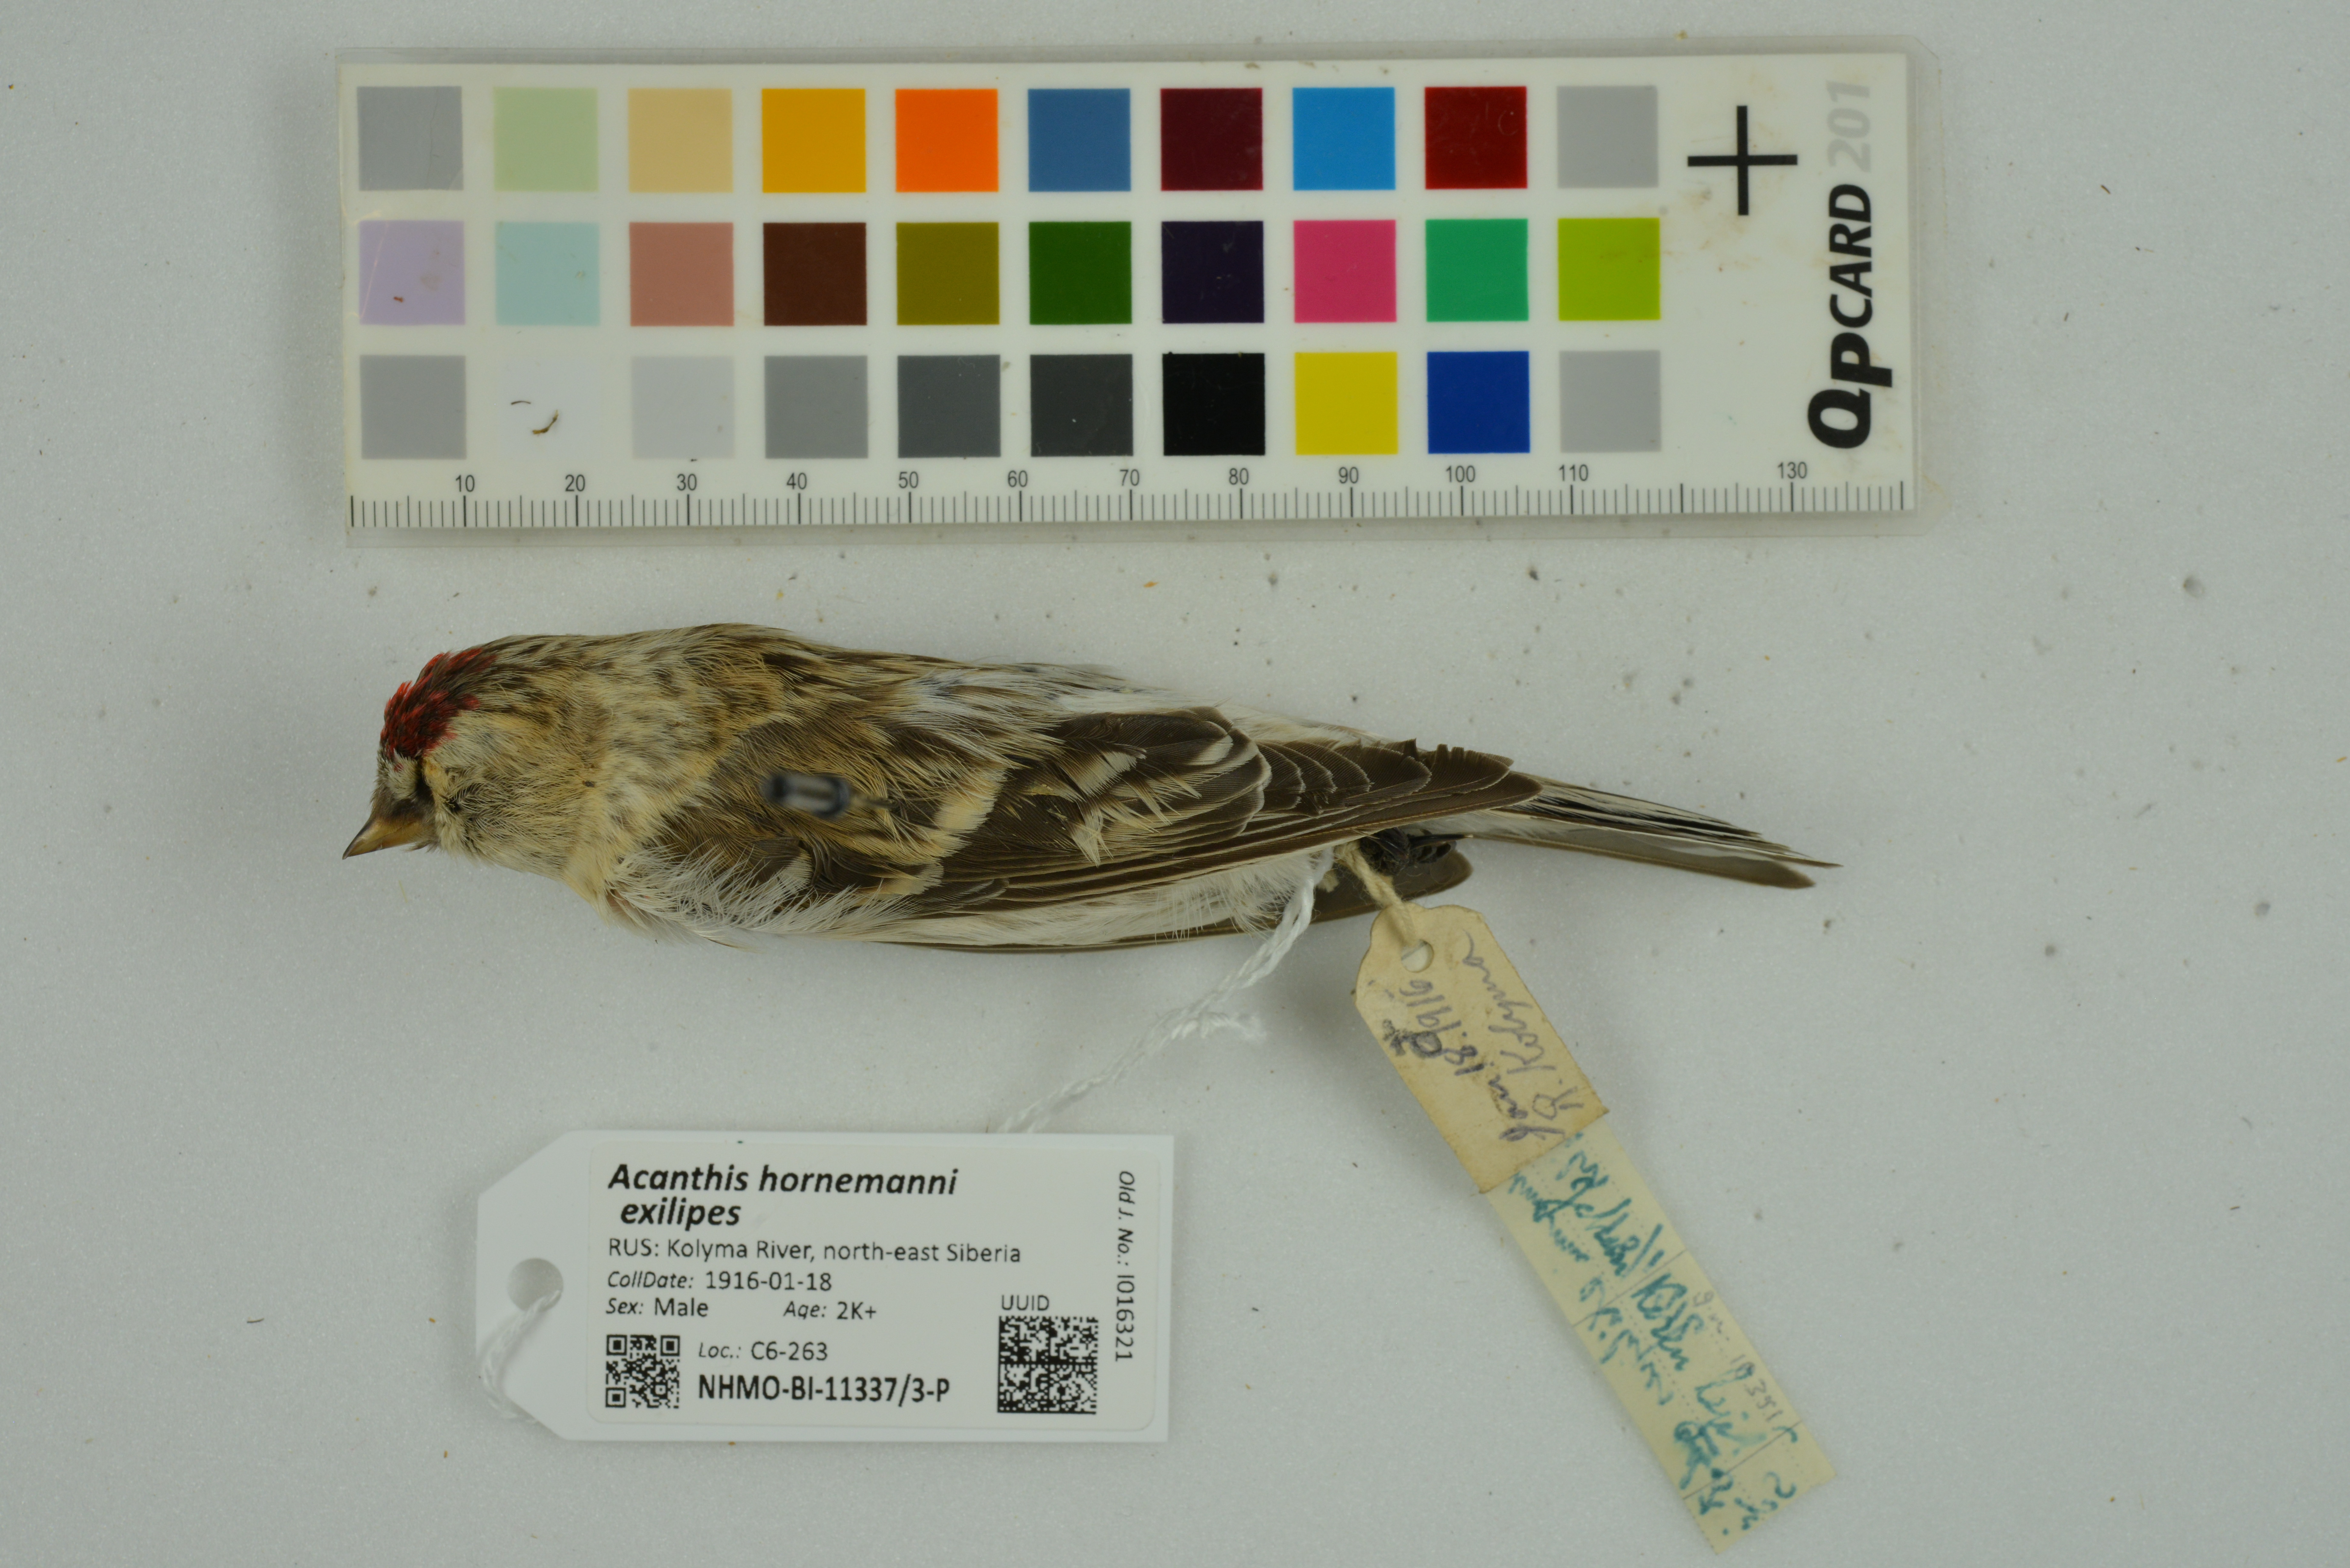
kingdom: Animalia
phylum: Chordata
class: Aves
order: Passeriformes
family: Fringillidae
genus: Acanthis
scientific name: Acanthis hornemanni
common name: Arctic redpoll
